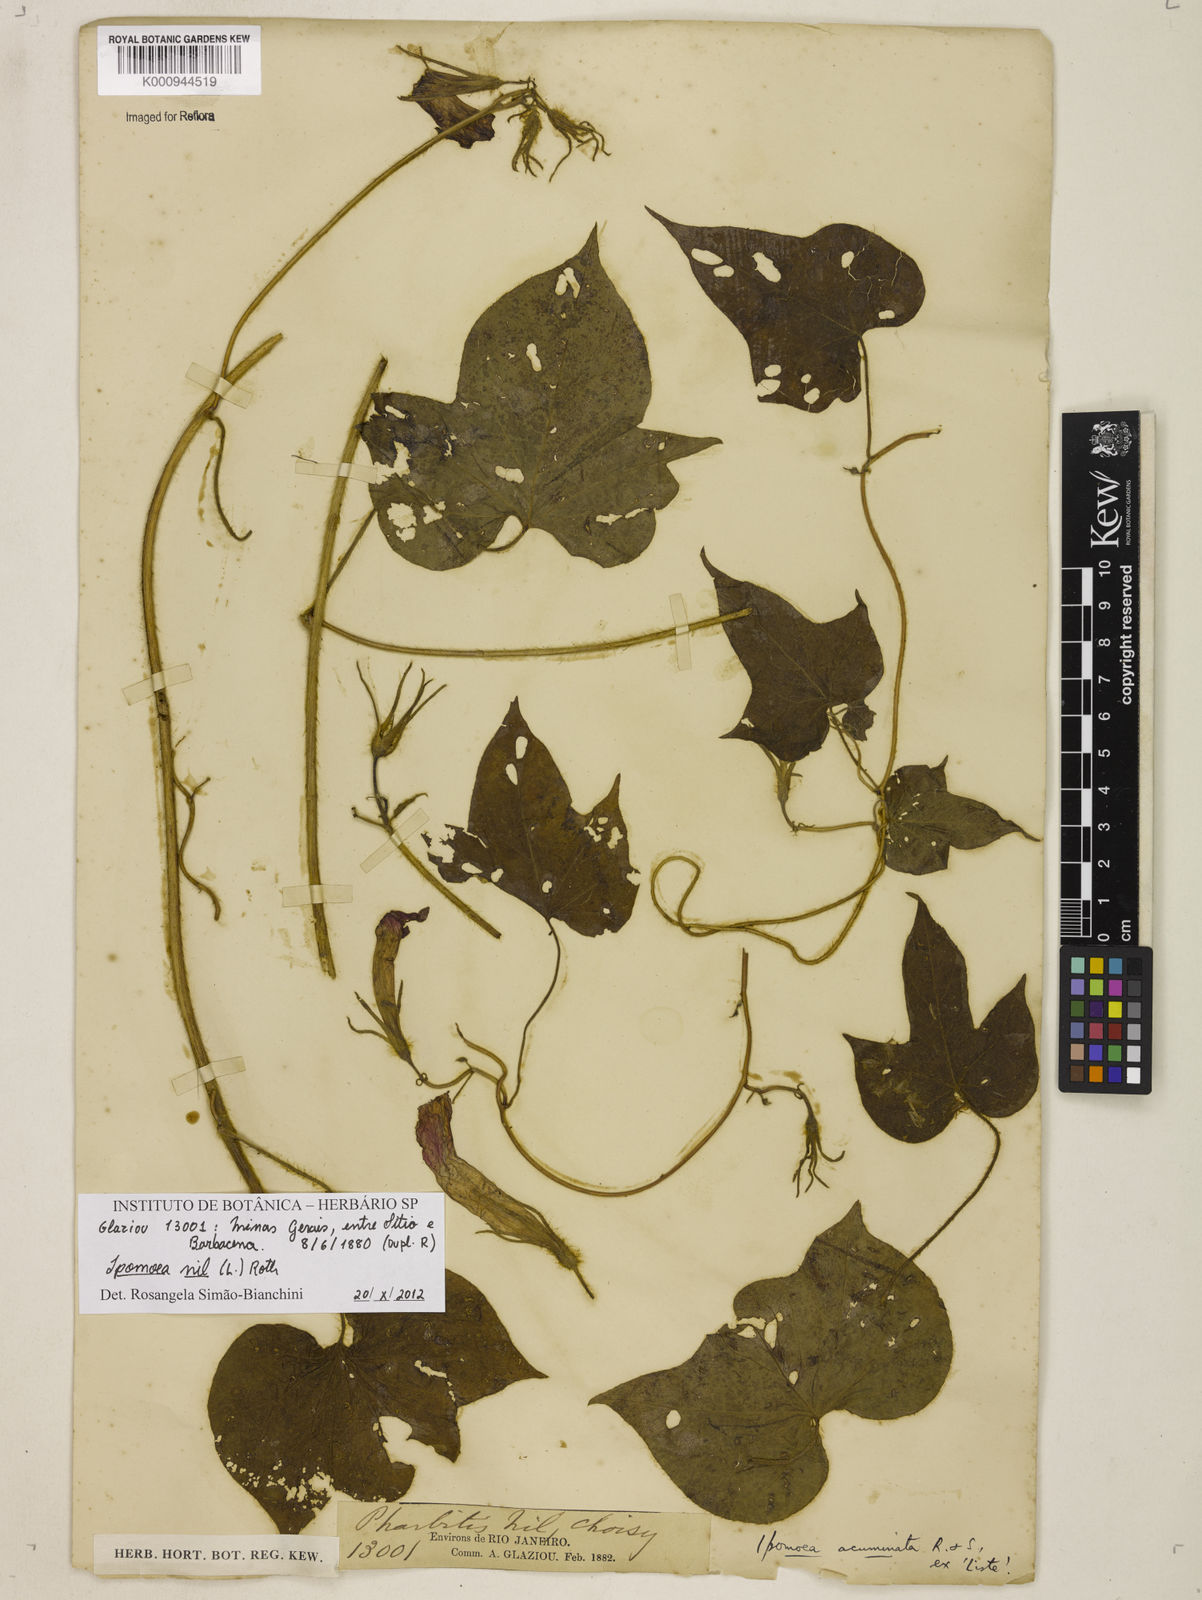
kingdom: Plantae
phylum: Tracheophyta
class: Magnoliopsida
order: Solanales
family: Convolvulaceae
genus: Ipomoea
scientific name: Ipomoea nil
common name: Japanese morning-glory
